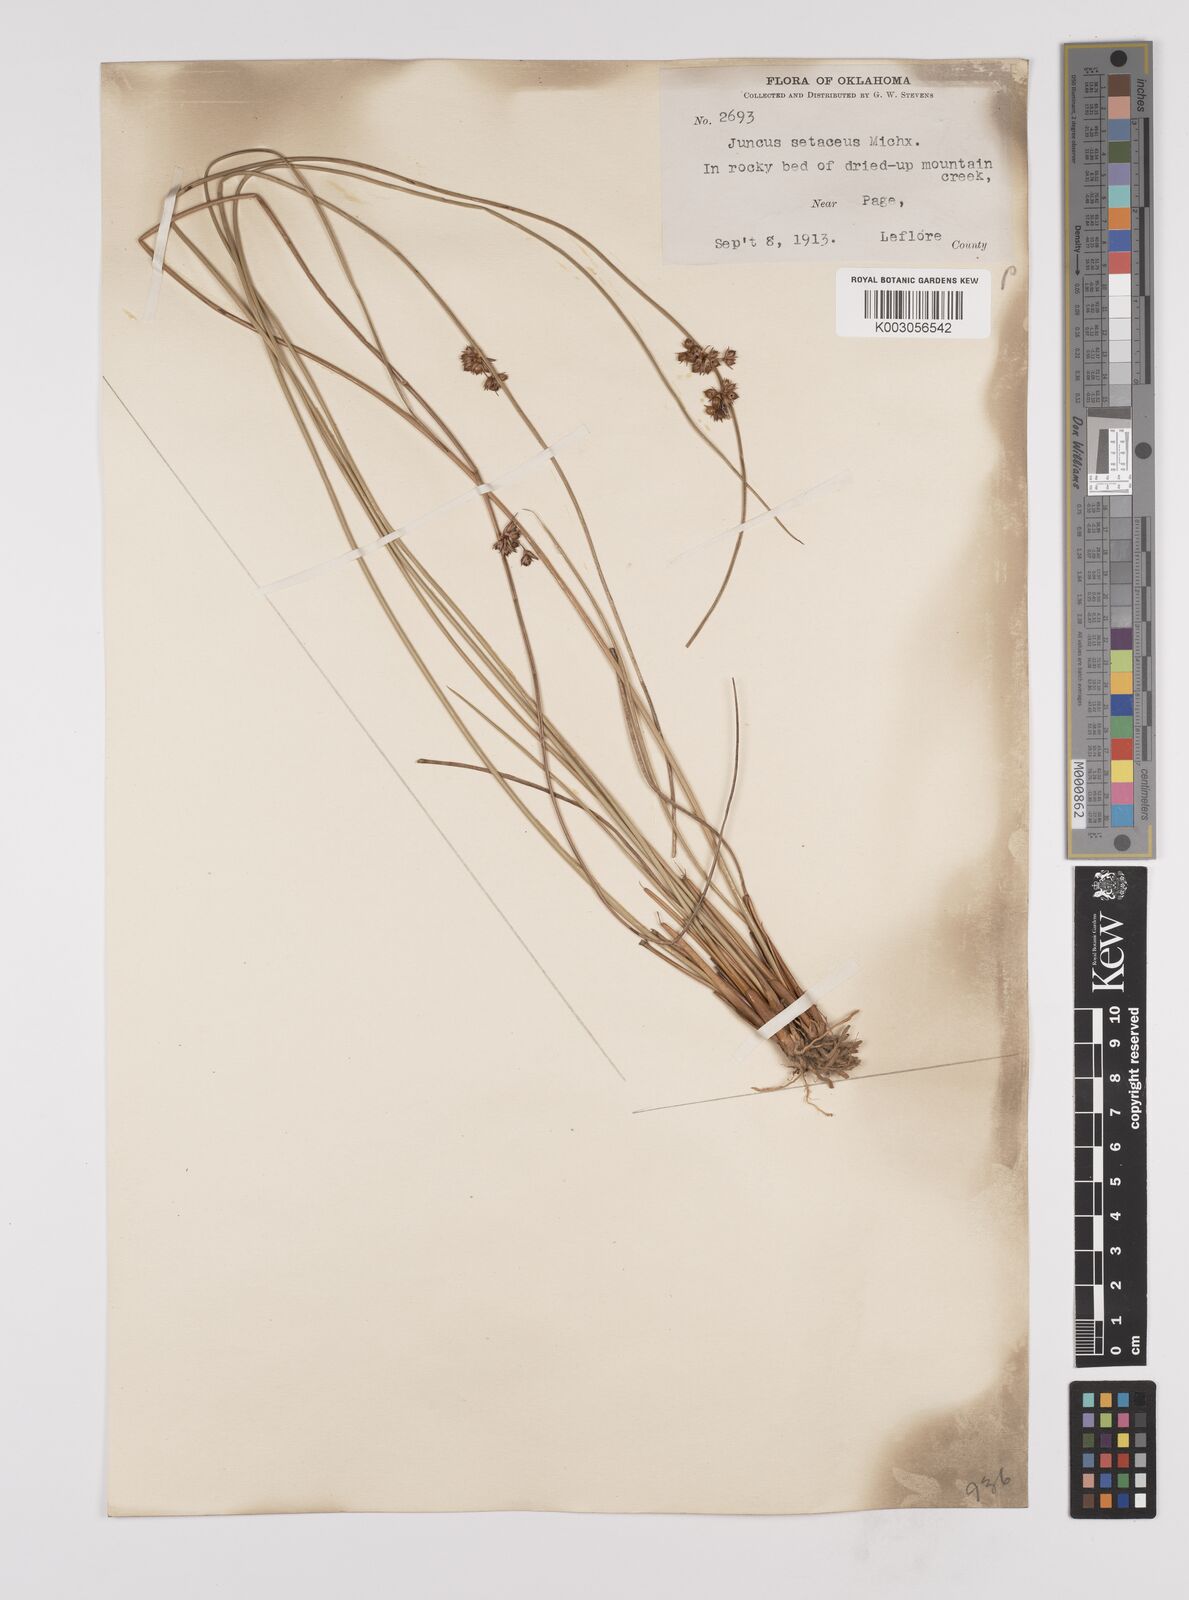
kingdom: Plantae
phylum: Tracheophyta
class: Liliopsida
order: Poales
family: Juncaceae
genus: Juncus
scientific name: Juncus balticus
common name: Baltic rush
